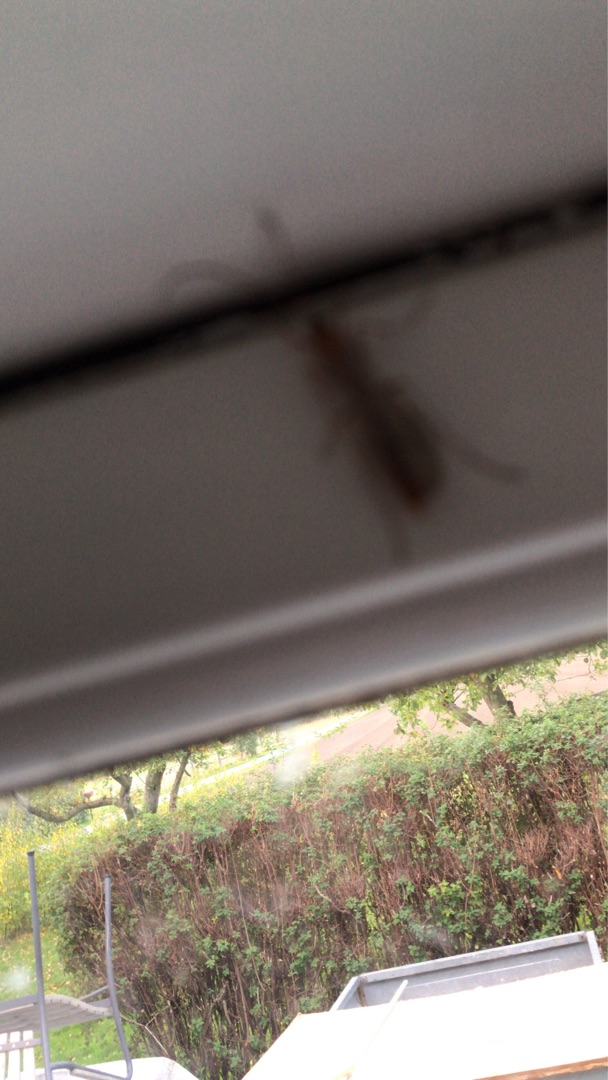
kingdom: Animalia
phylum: Arthropoda
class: Insecta
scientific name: Insecta
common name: Insekter
